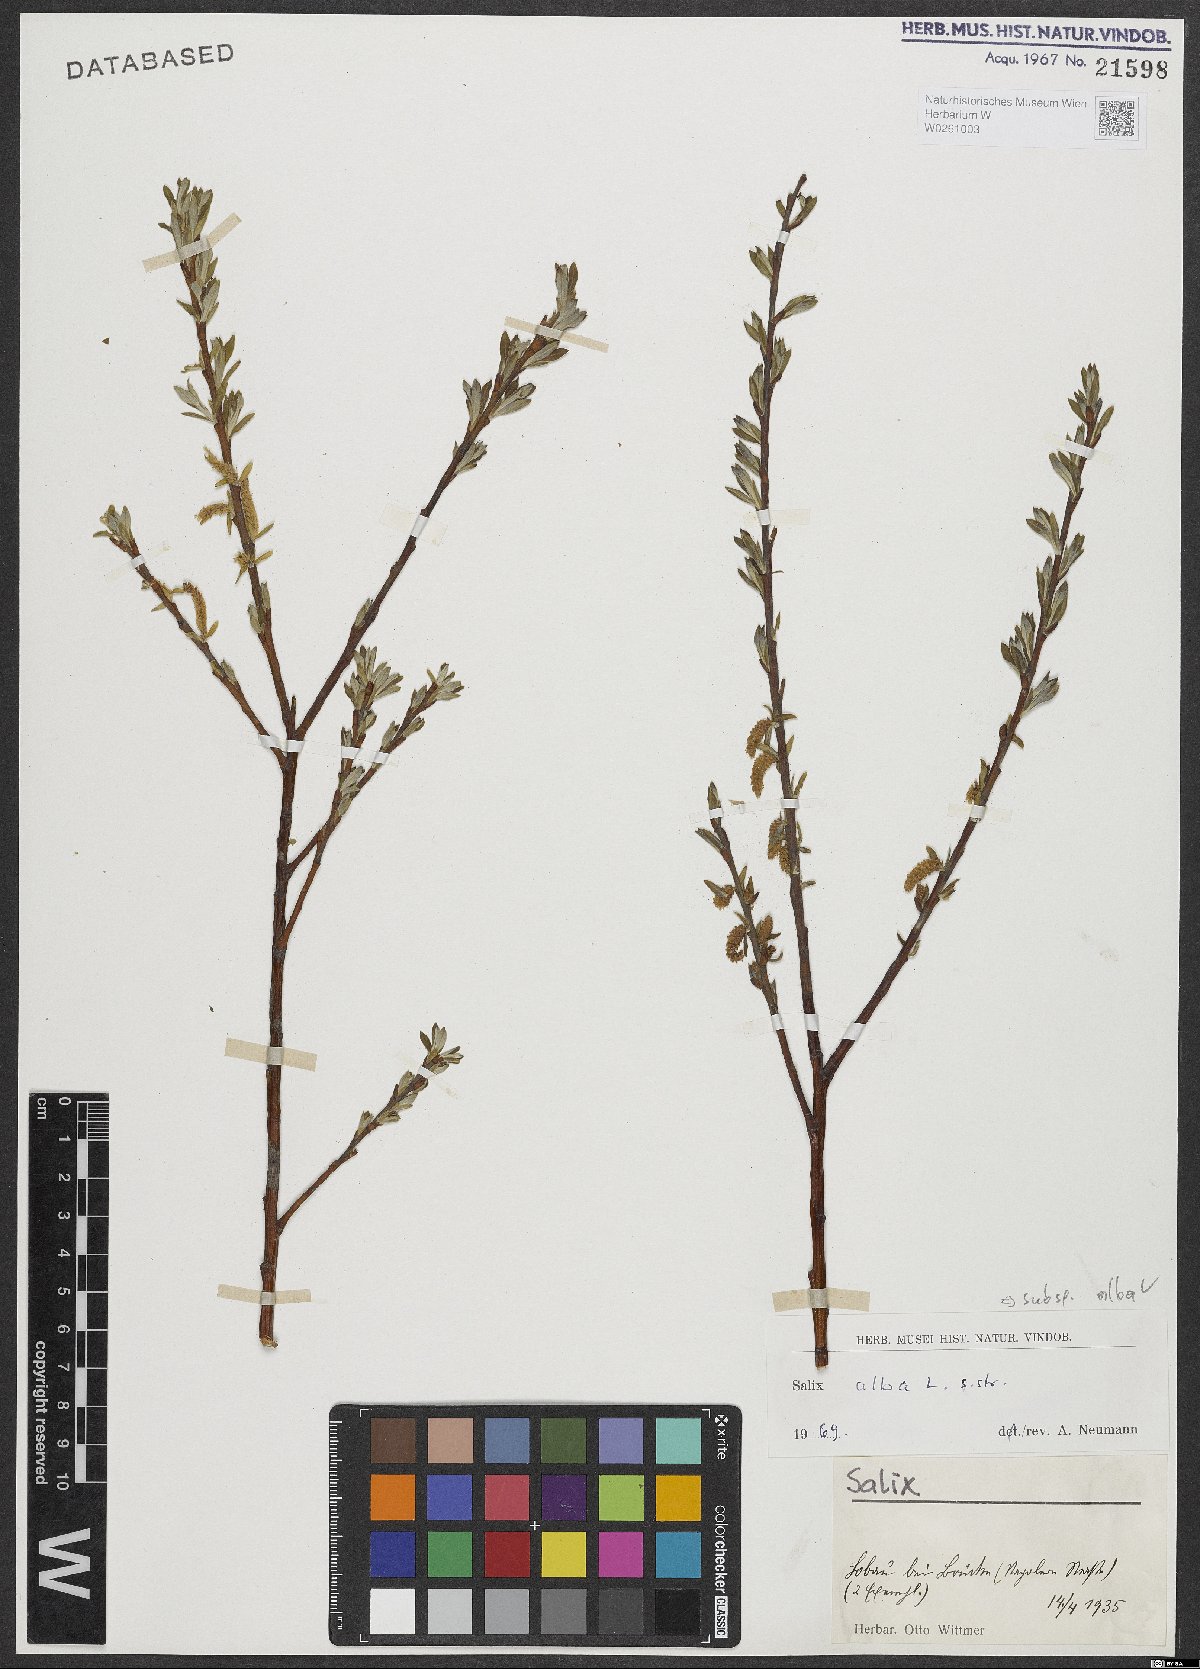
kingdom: Plantae
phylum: Tracheophyta
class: Magnoliopsida
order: Malpighiales
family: Salicaceae
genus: Salix
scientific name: Salix alba
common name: White willow
